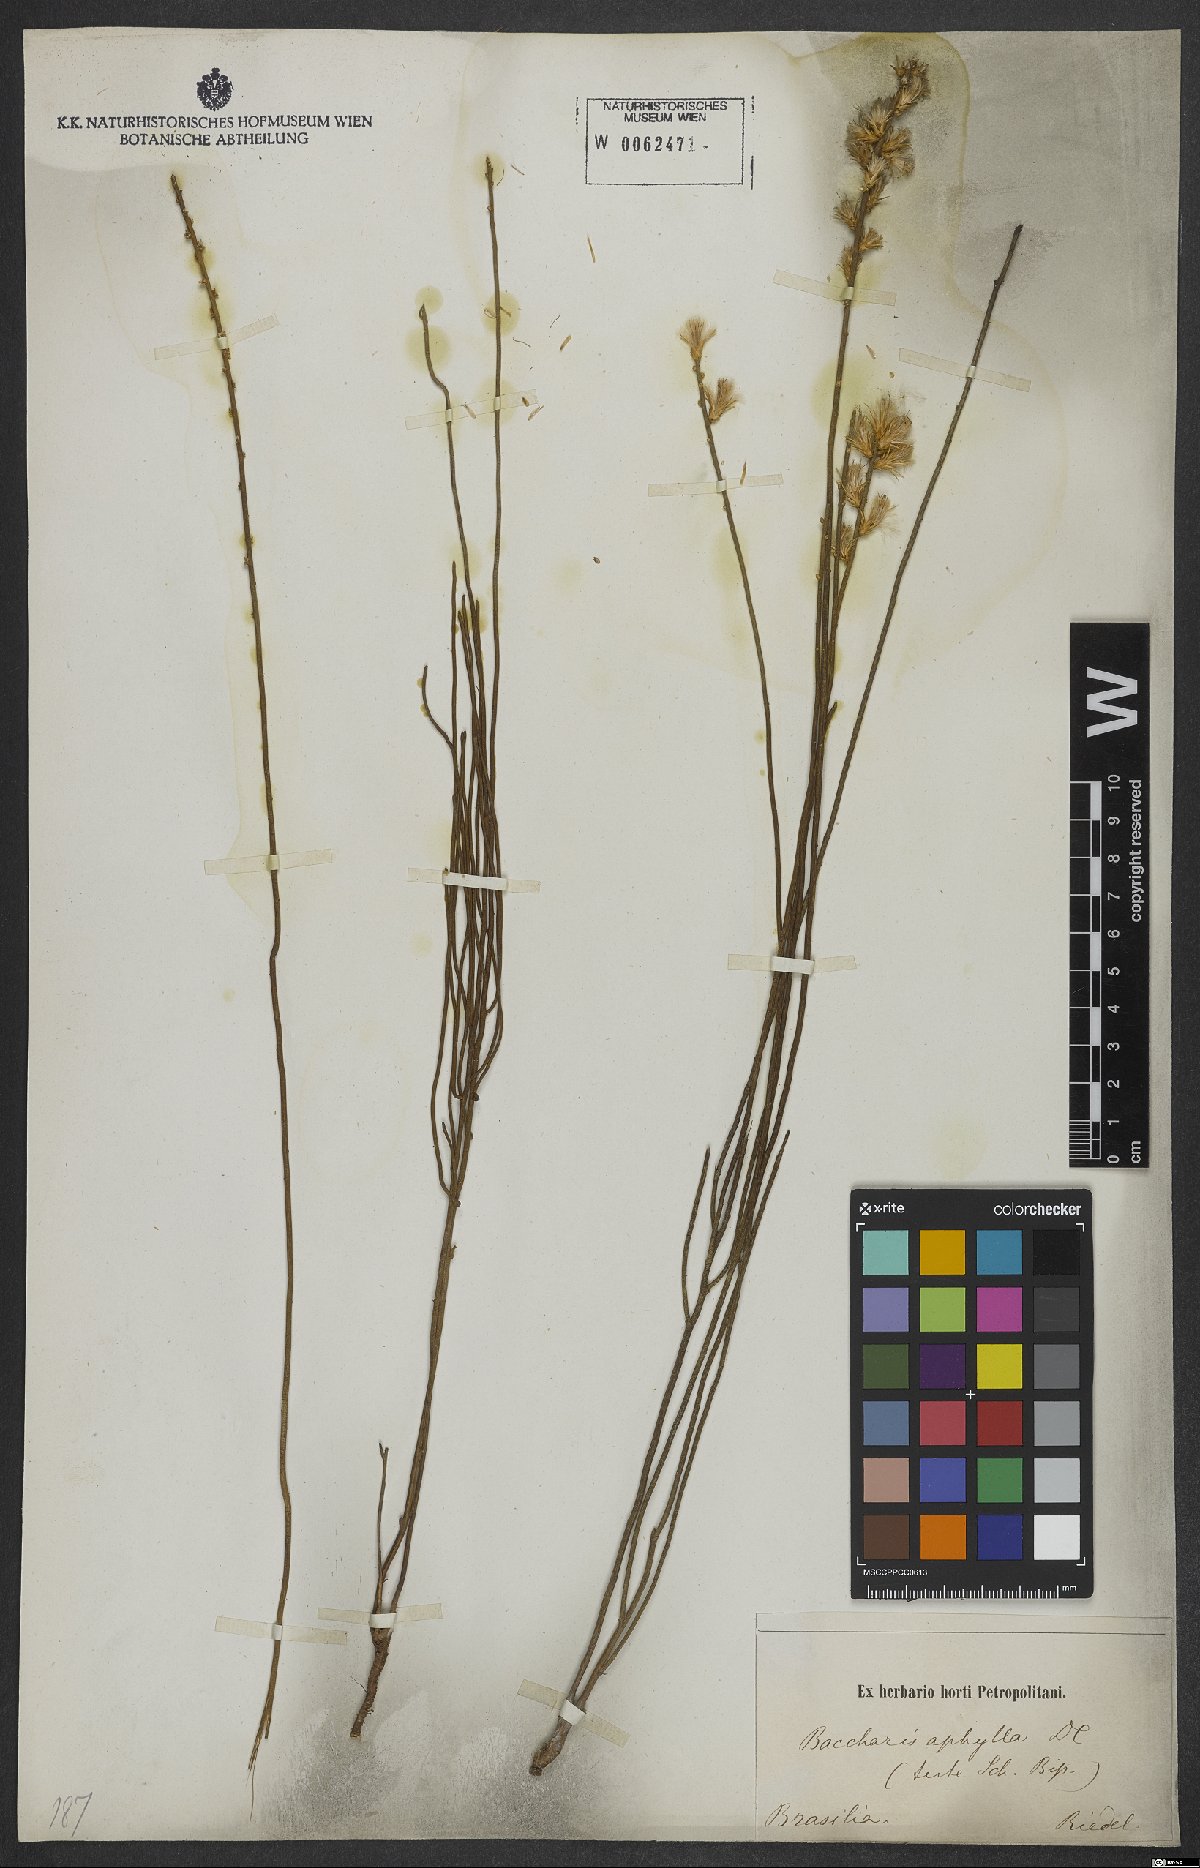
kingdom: Plantae
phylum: Tracheophyta
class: Magnoliopsida
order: Asterales
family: Asteraceae
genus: Baccharis
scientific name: Baccharis aphylla
